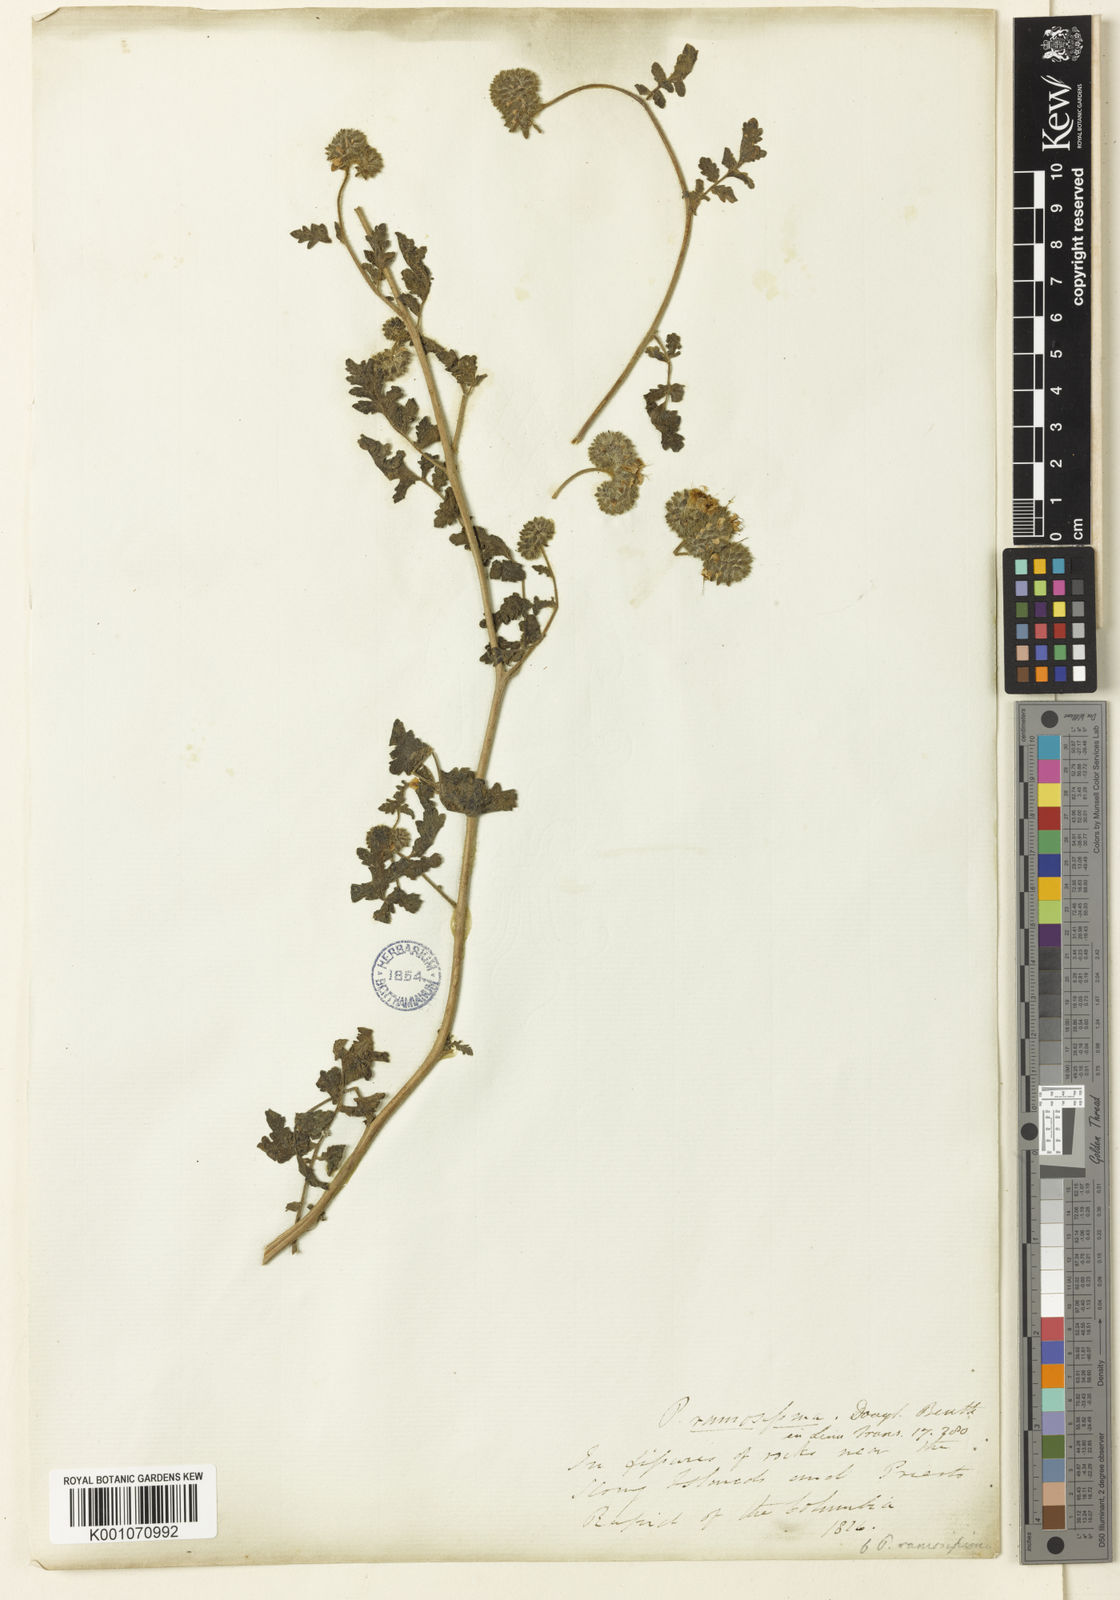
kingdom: Plantae
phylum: Tracheophyta
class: Magnoliopsida
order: Boraginales
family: Hydrophyllaceae
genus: Phacelia
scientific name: Phacelia ramosissima
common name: Branching phacelia
